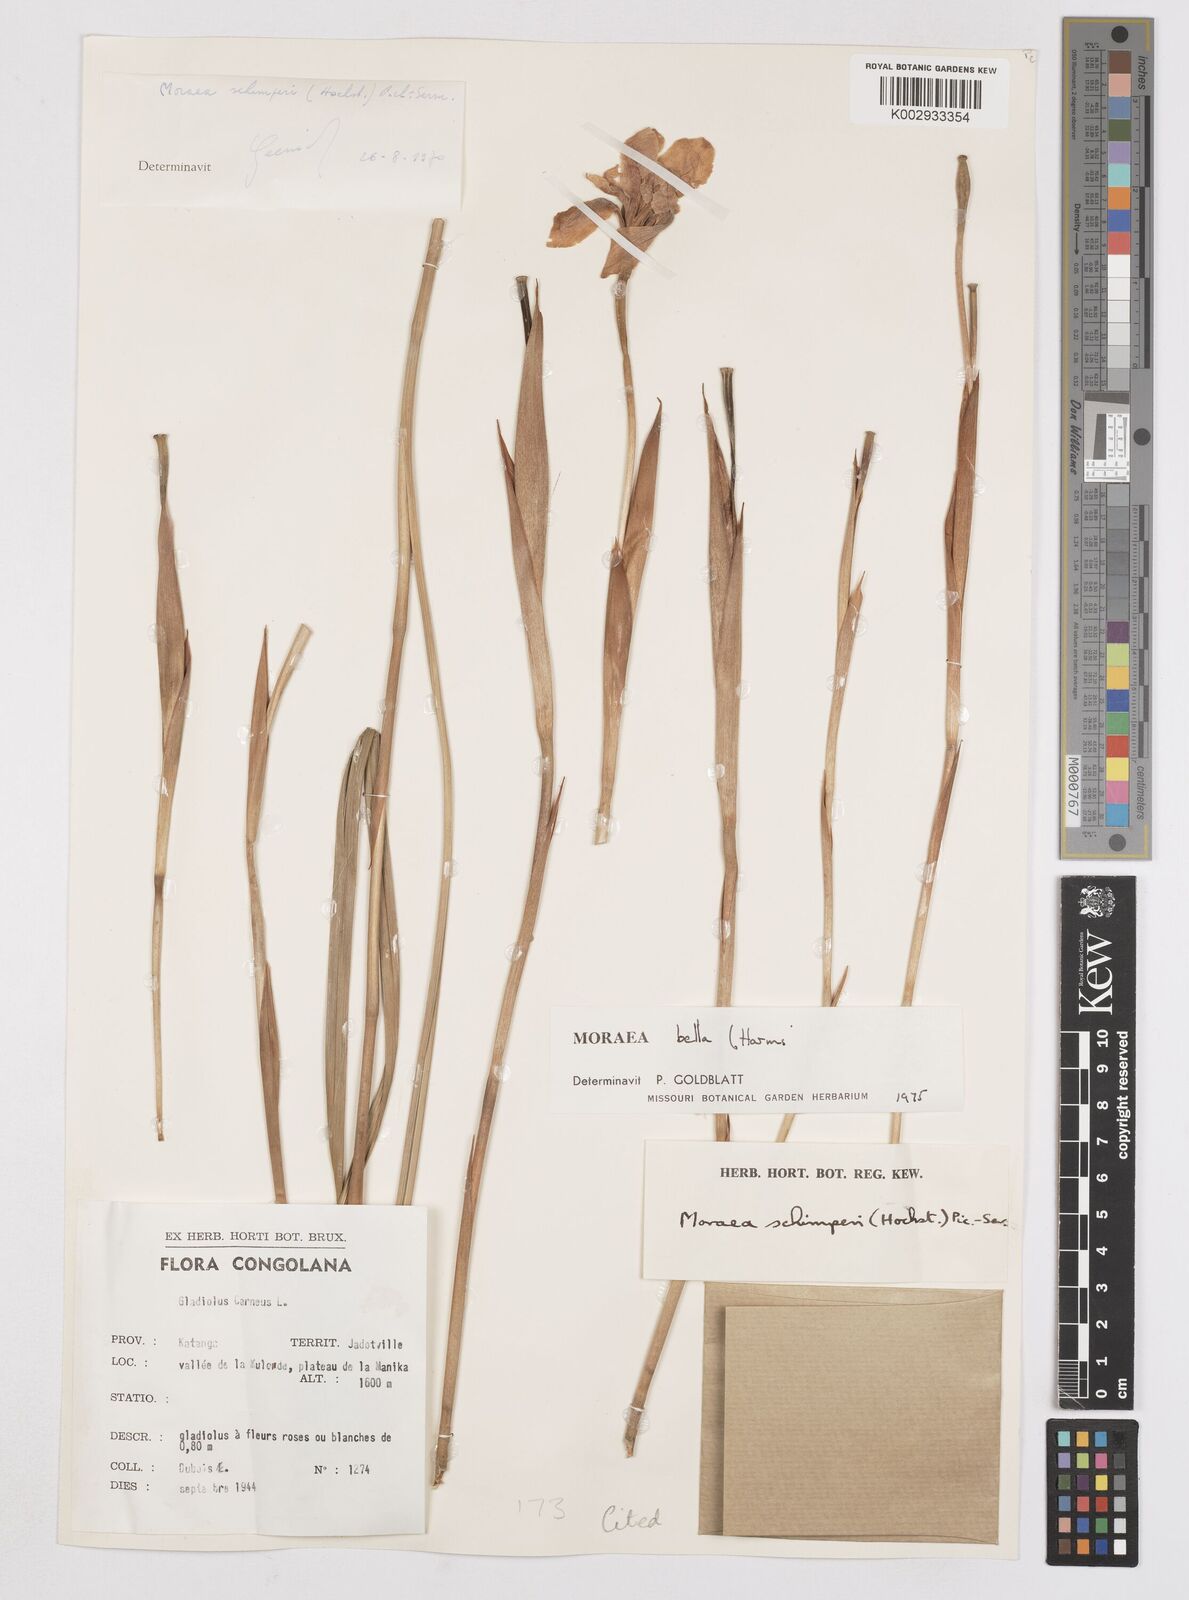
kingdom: Plantae
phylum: Tracheophyta
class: Liliopsida
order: Asparagales
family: Iridaceae
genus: Moraea
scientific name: Moraea bella
